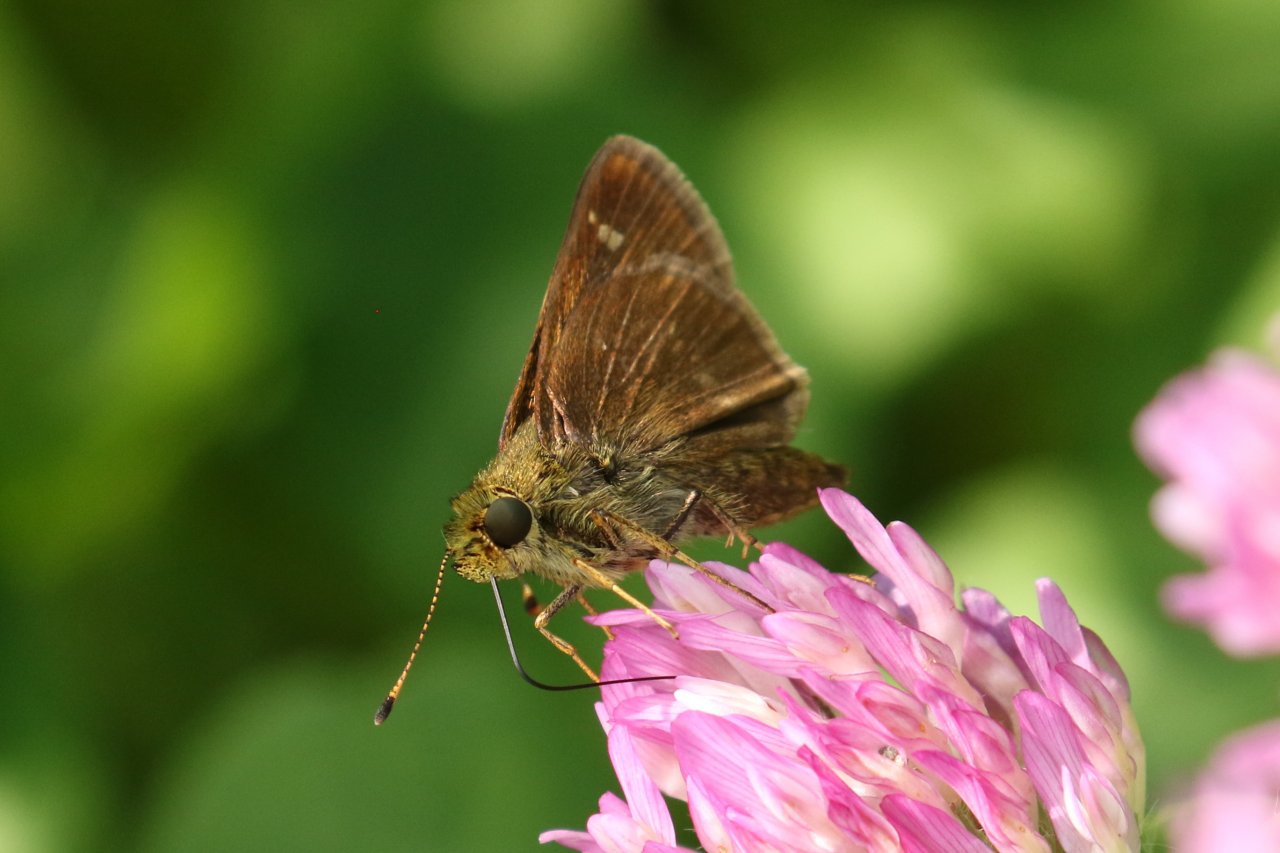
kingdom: Animalia
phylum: Arthropoda
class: Insecta
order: Lepidoptera
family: Hesperiidae
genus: Euphyes
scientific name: Euphyes vestris
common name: Dun Skipper
